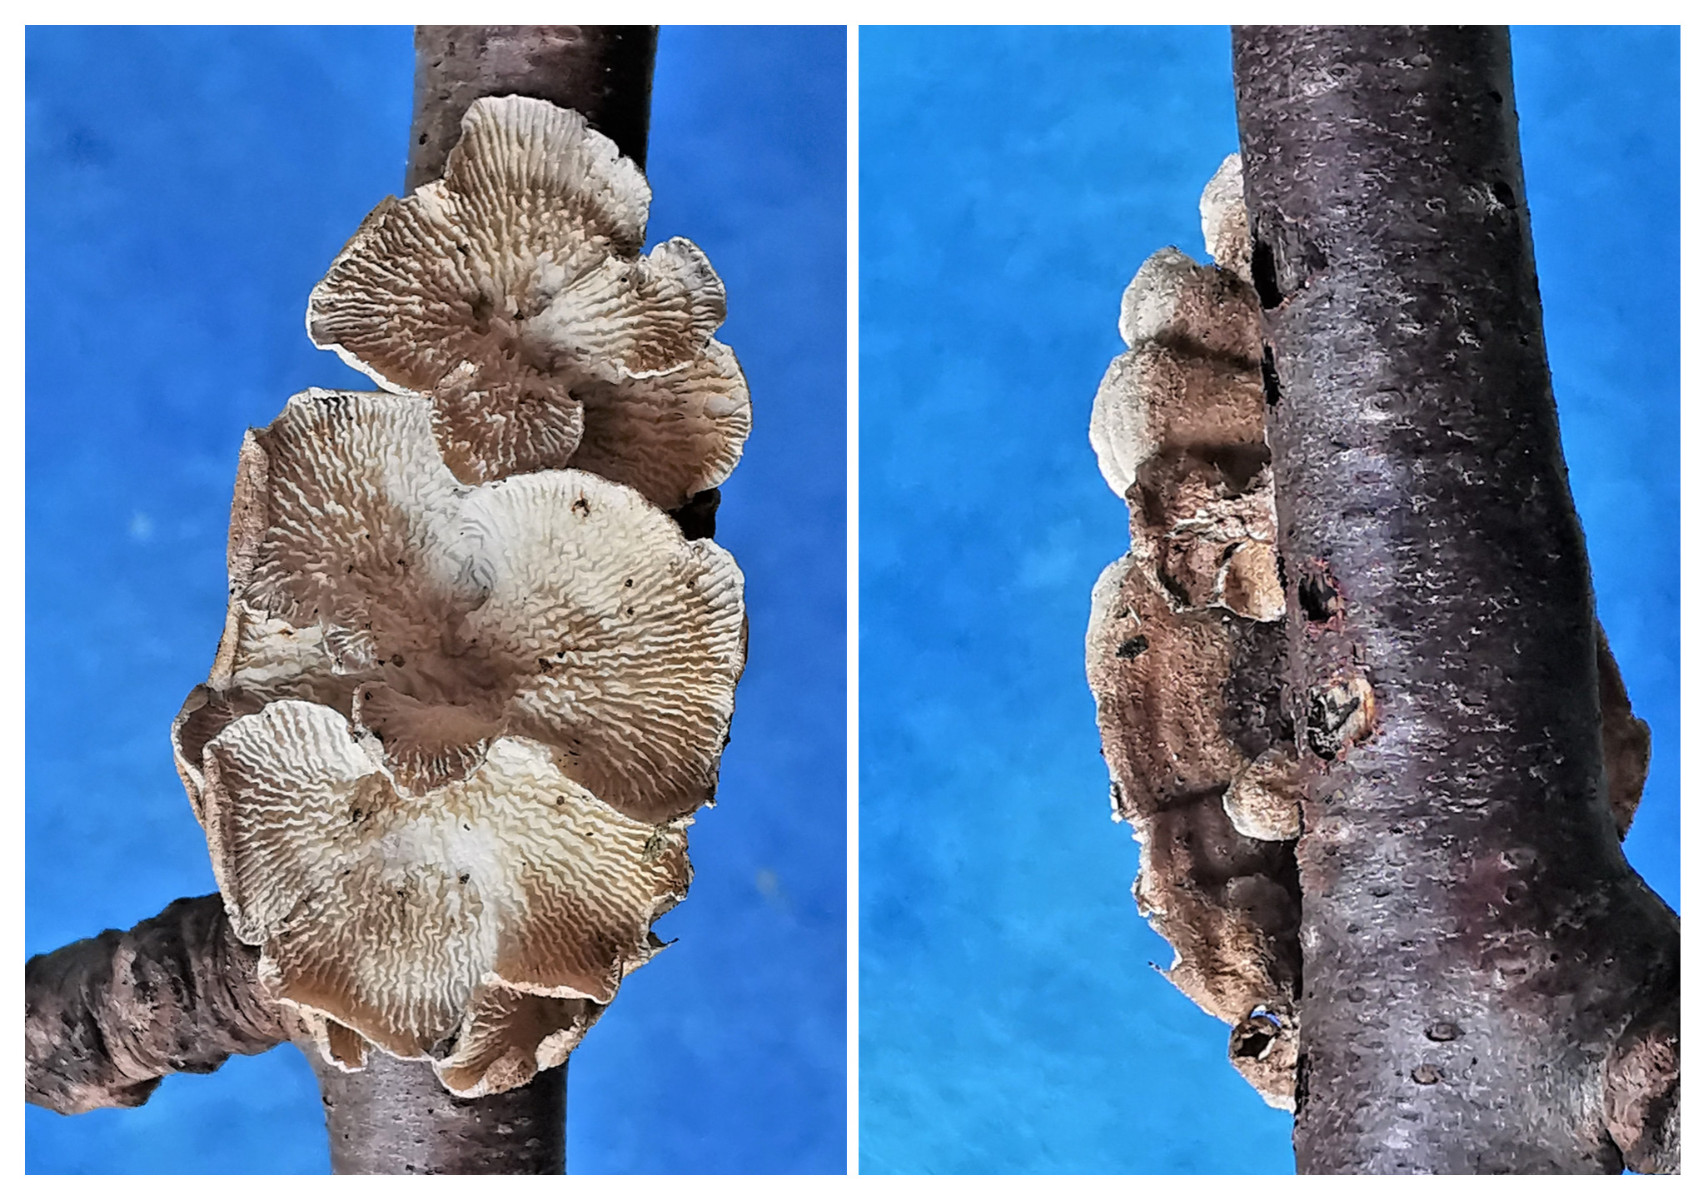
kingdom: Fungi
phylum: Basidiomycota
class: Agaricomycetes
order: Amylocorticiales
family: Amylocorticiaceae
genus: Plicaturopsis
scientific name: Plicaturopsis crispa
